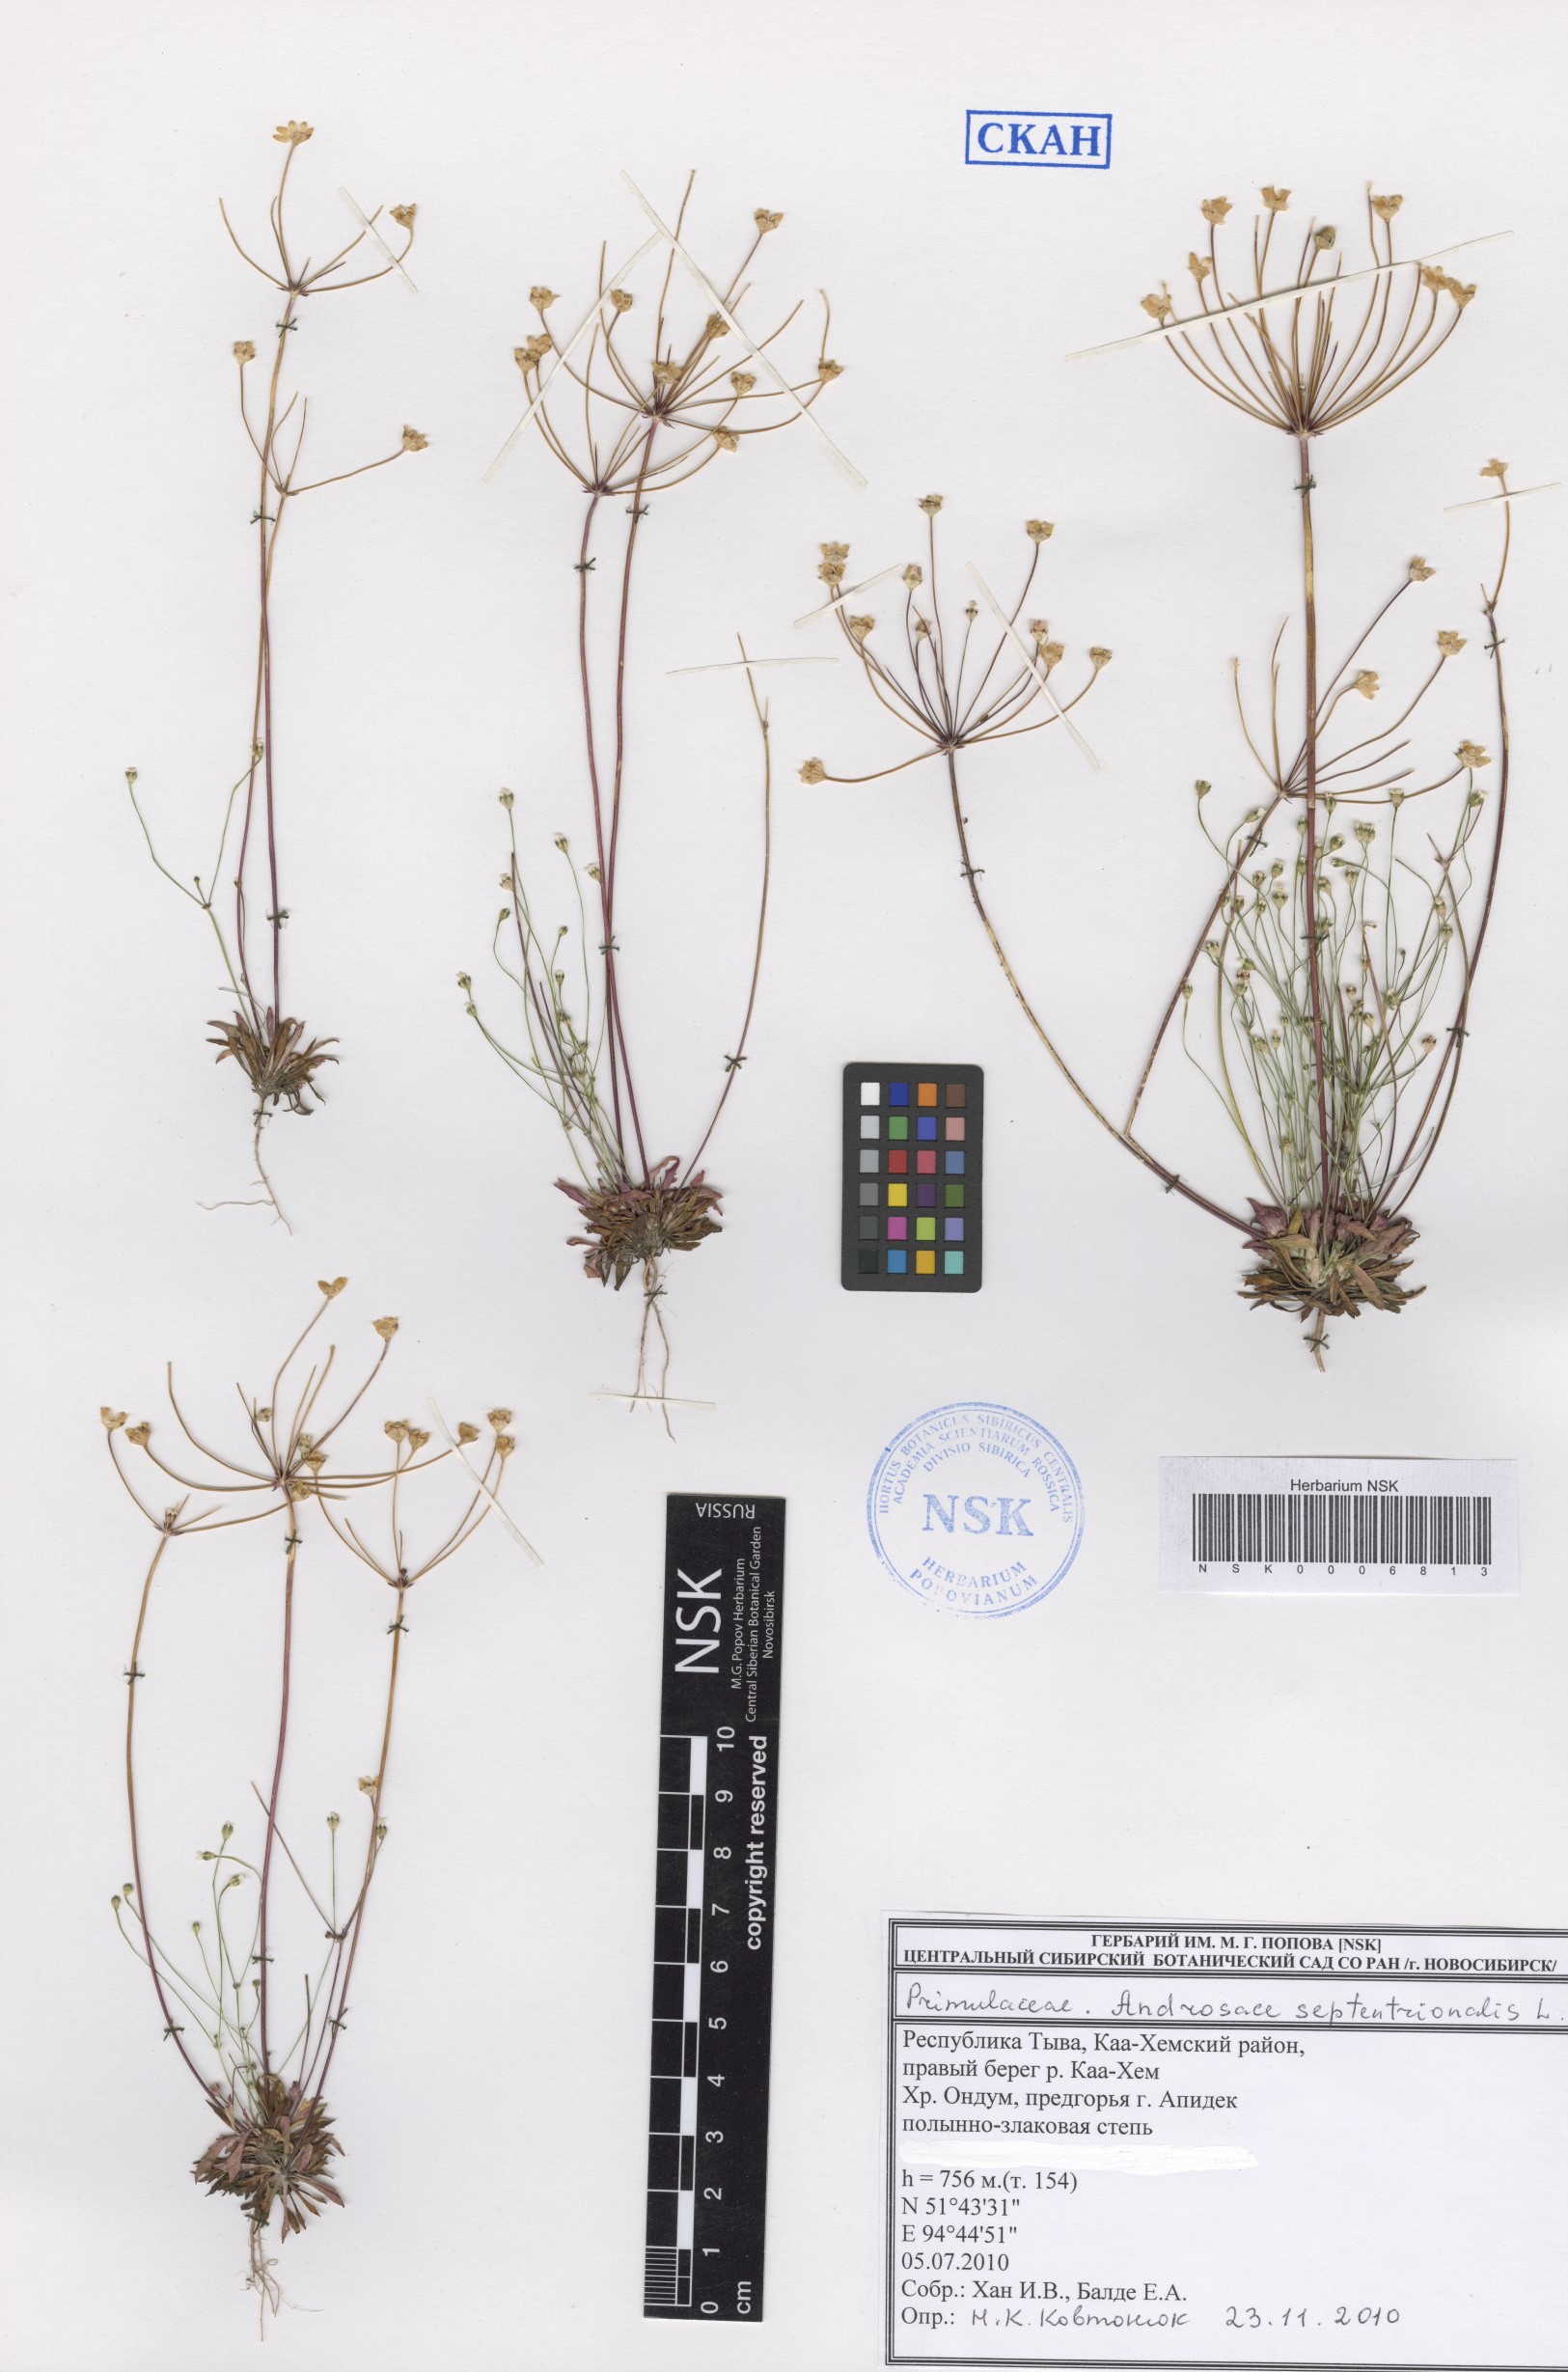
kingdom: Plantae
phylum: Tracheophyta
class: Magnoliopsida
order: Ericales
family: Primulaceae
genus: Androsace
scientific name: Androsace septentrionalis
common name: Hairy northern fairy-candelabra
